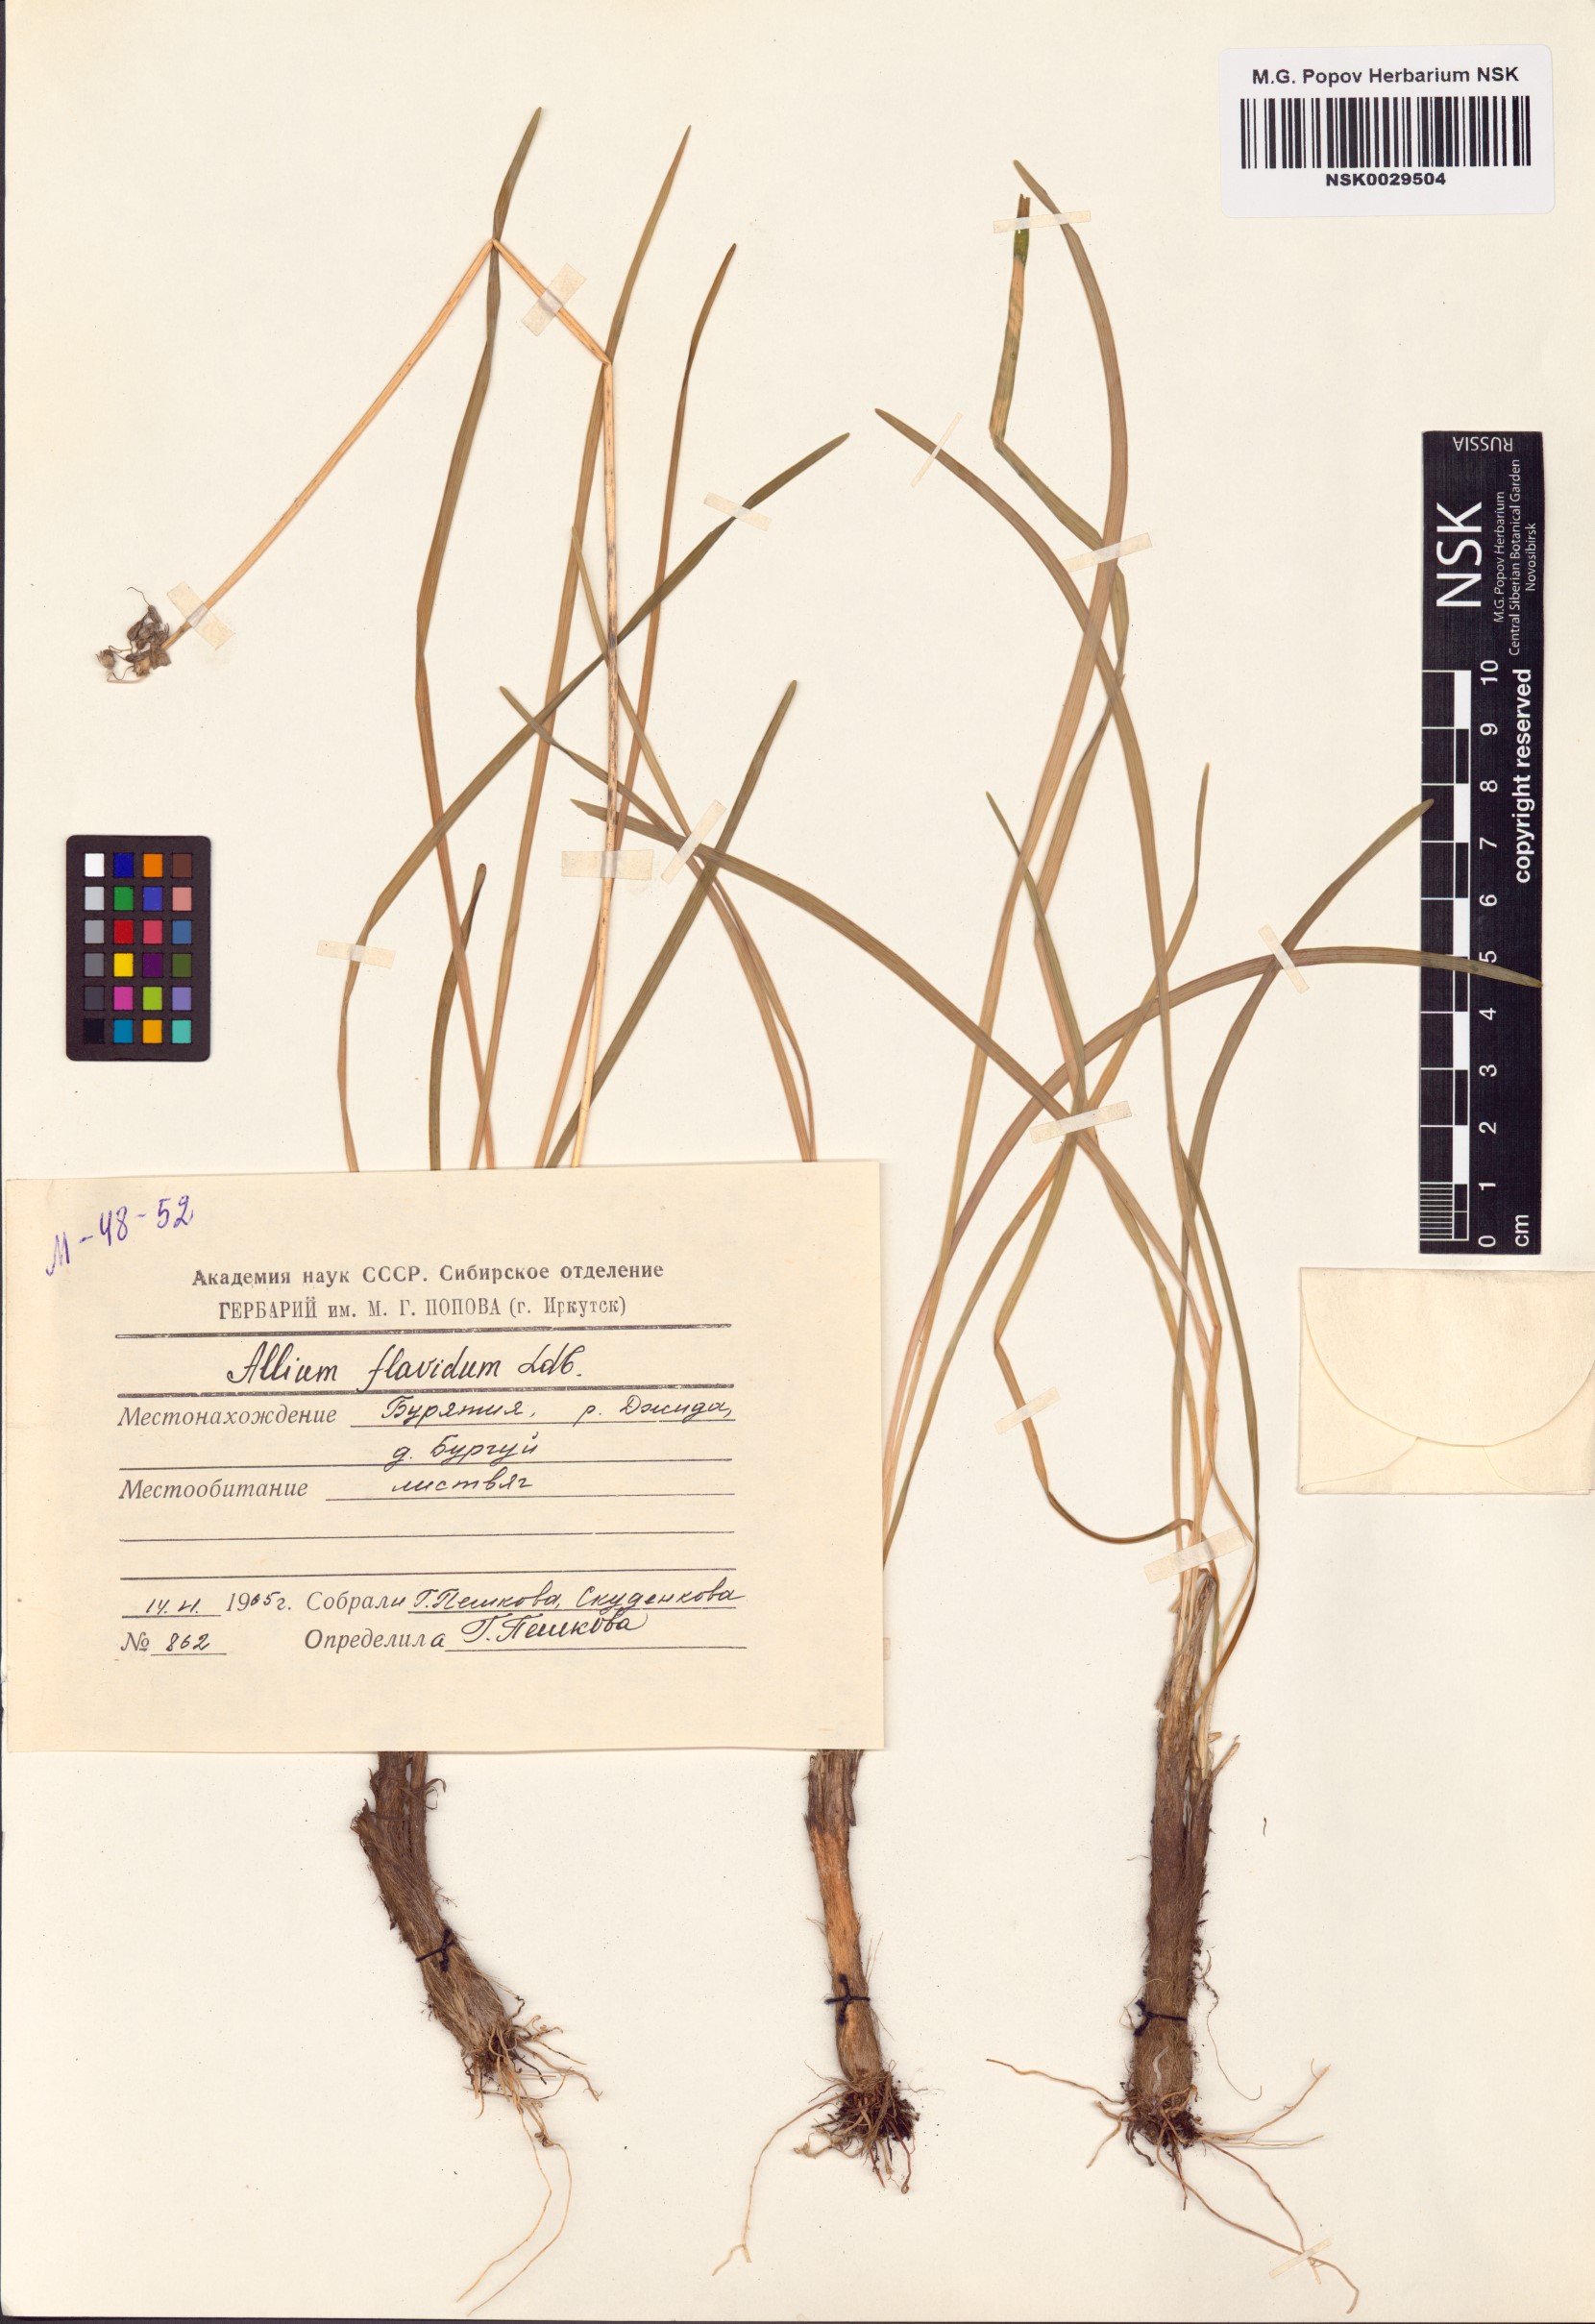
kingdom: Plantae
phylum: Tracheophyta
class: Liliopsida
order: Asparagales
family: Amaryllidaceae
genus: Allium
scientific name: Allium flavidum
